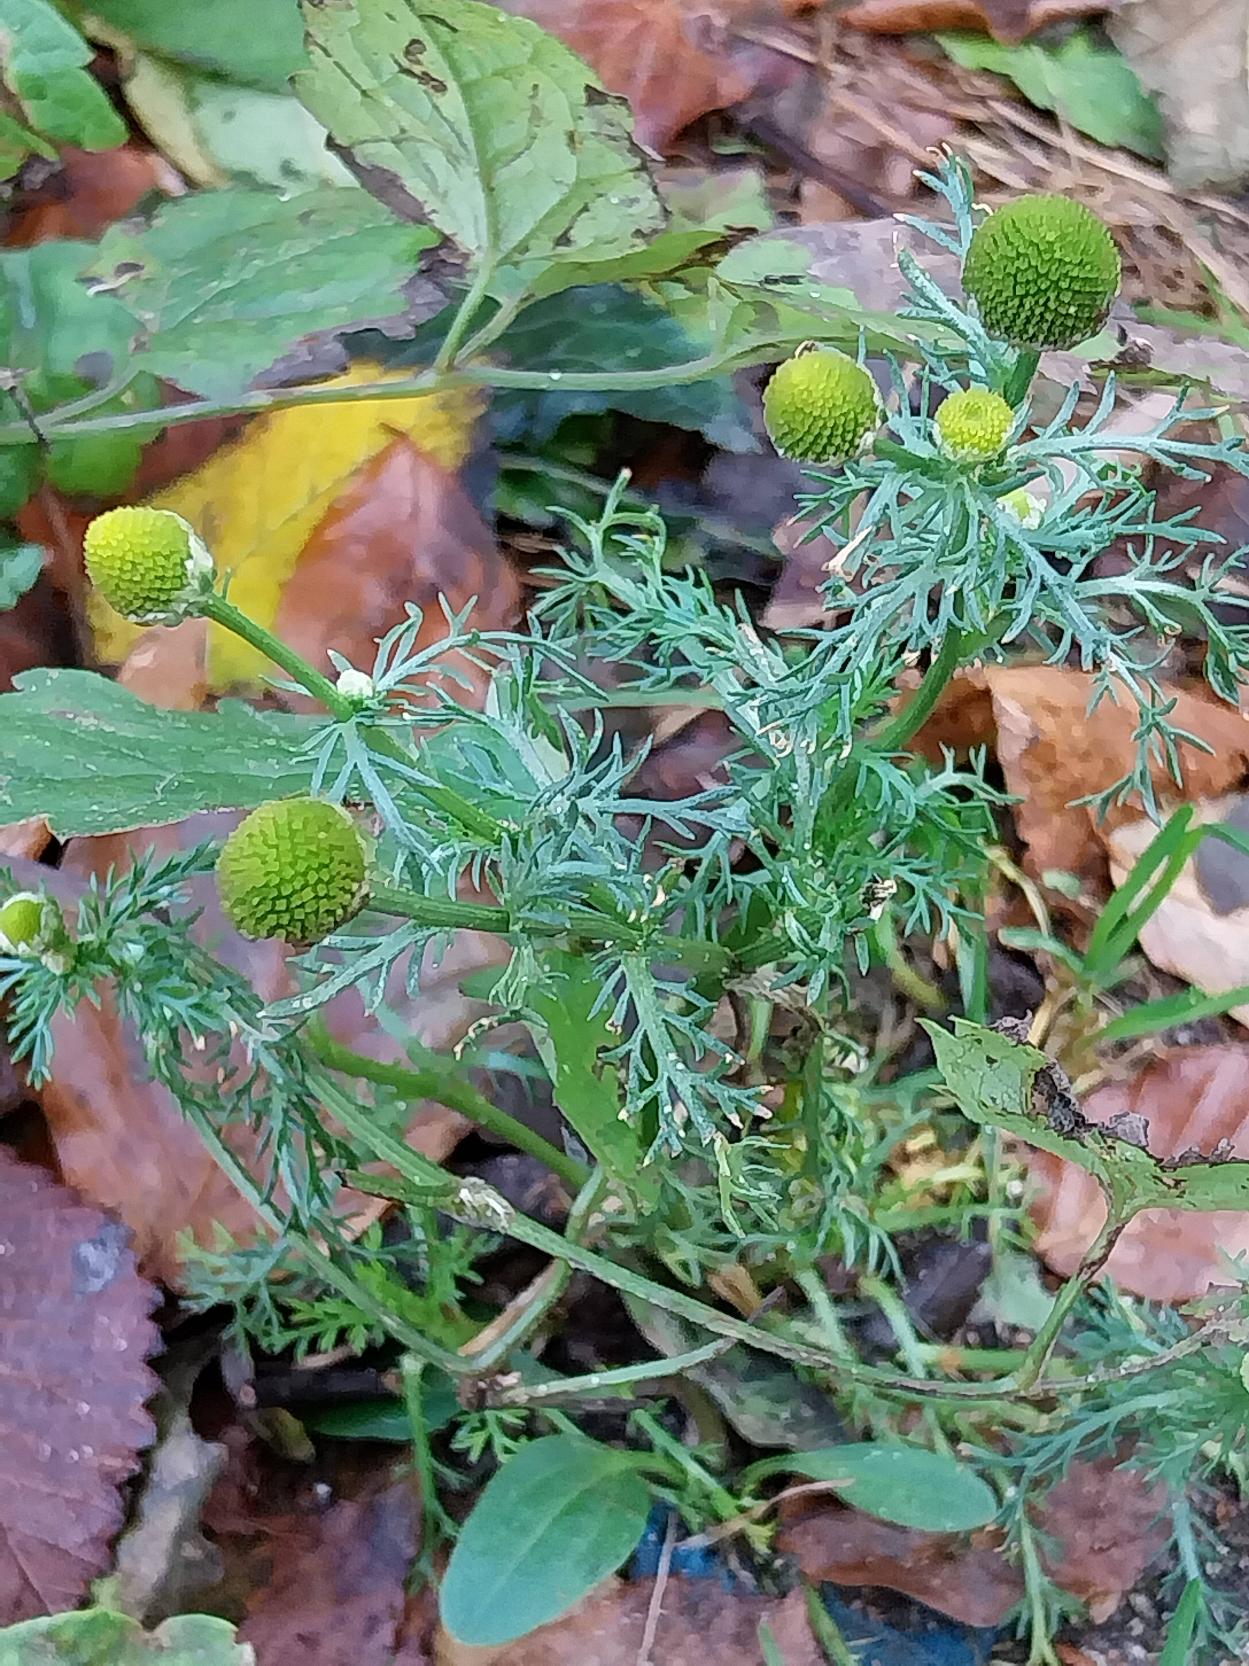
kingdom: Plantae
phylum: Tracheophyta
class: Magnoliopsida
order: Asterales
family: Asteraceae
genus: Matricaria
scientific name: Matricaria discoidea
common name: Skive-kamille
